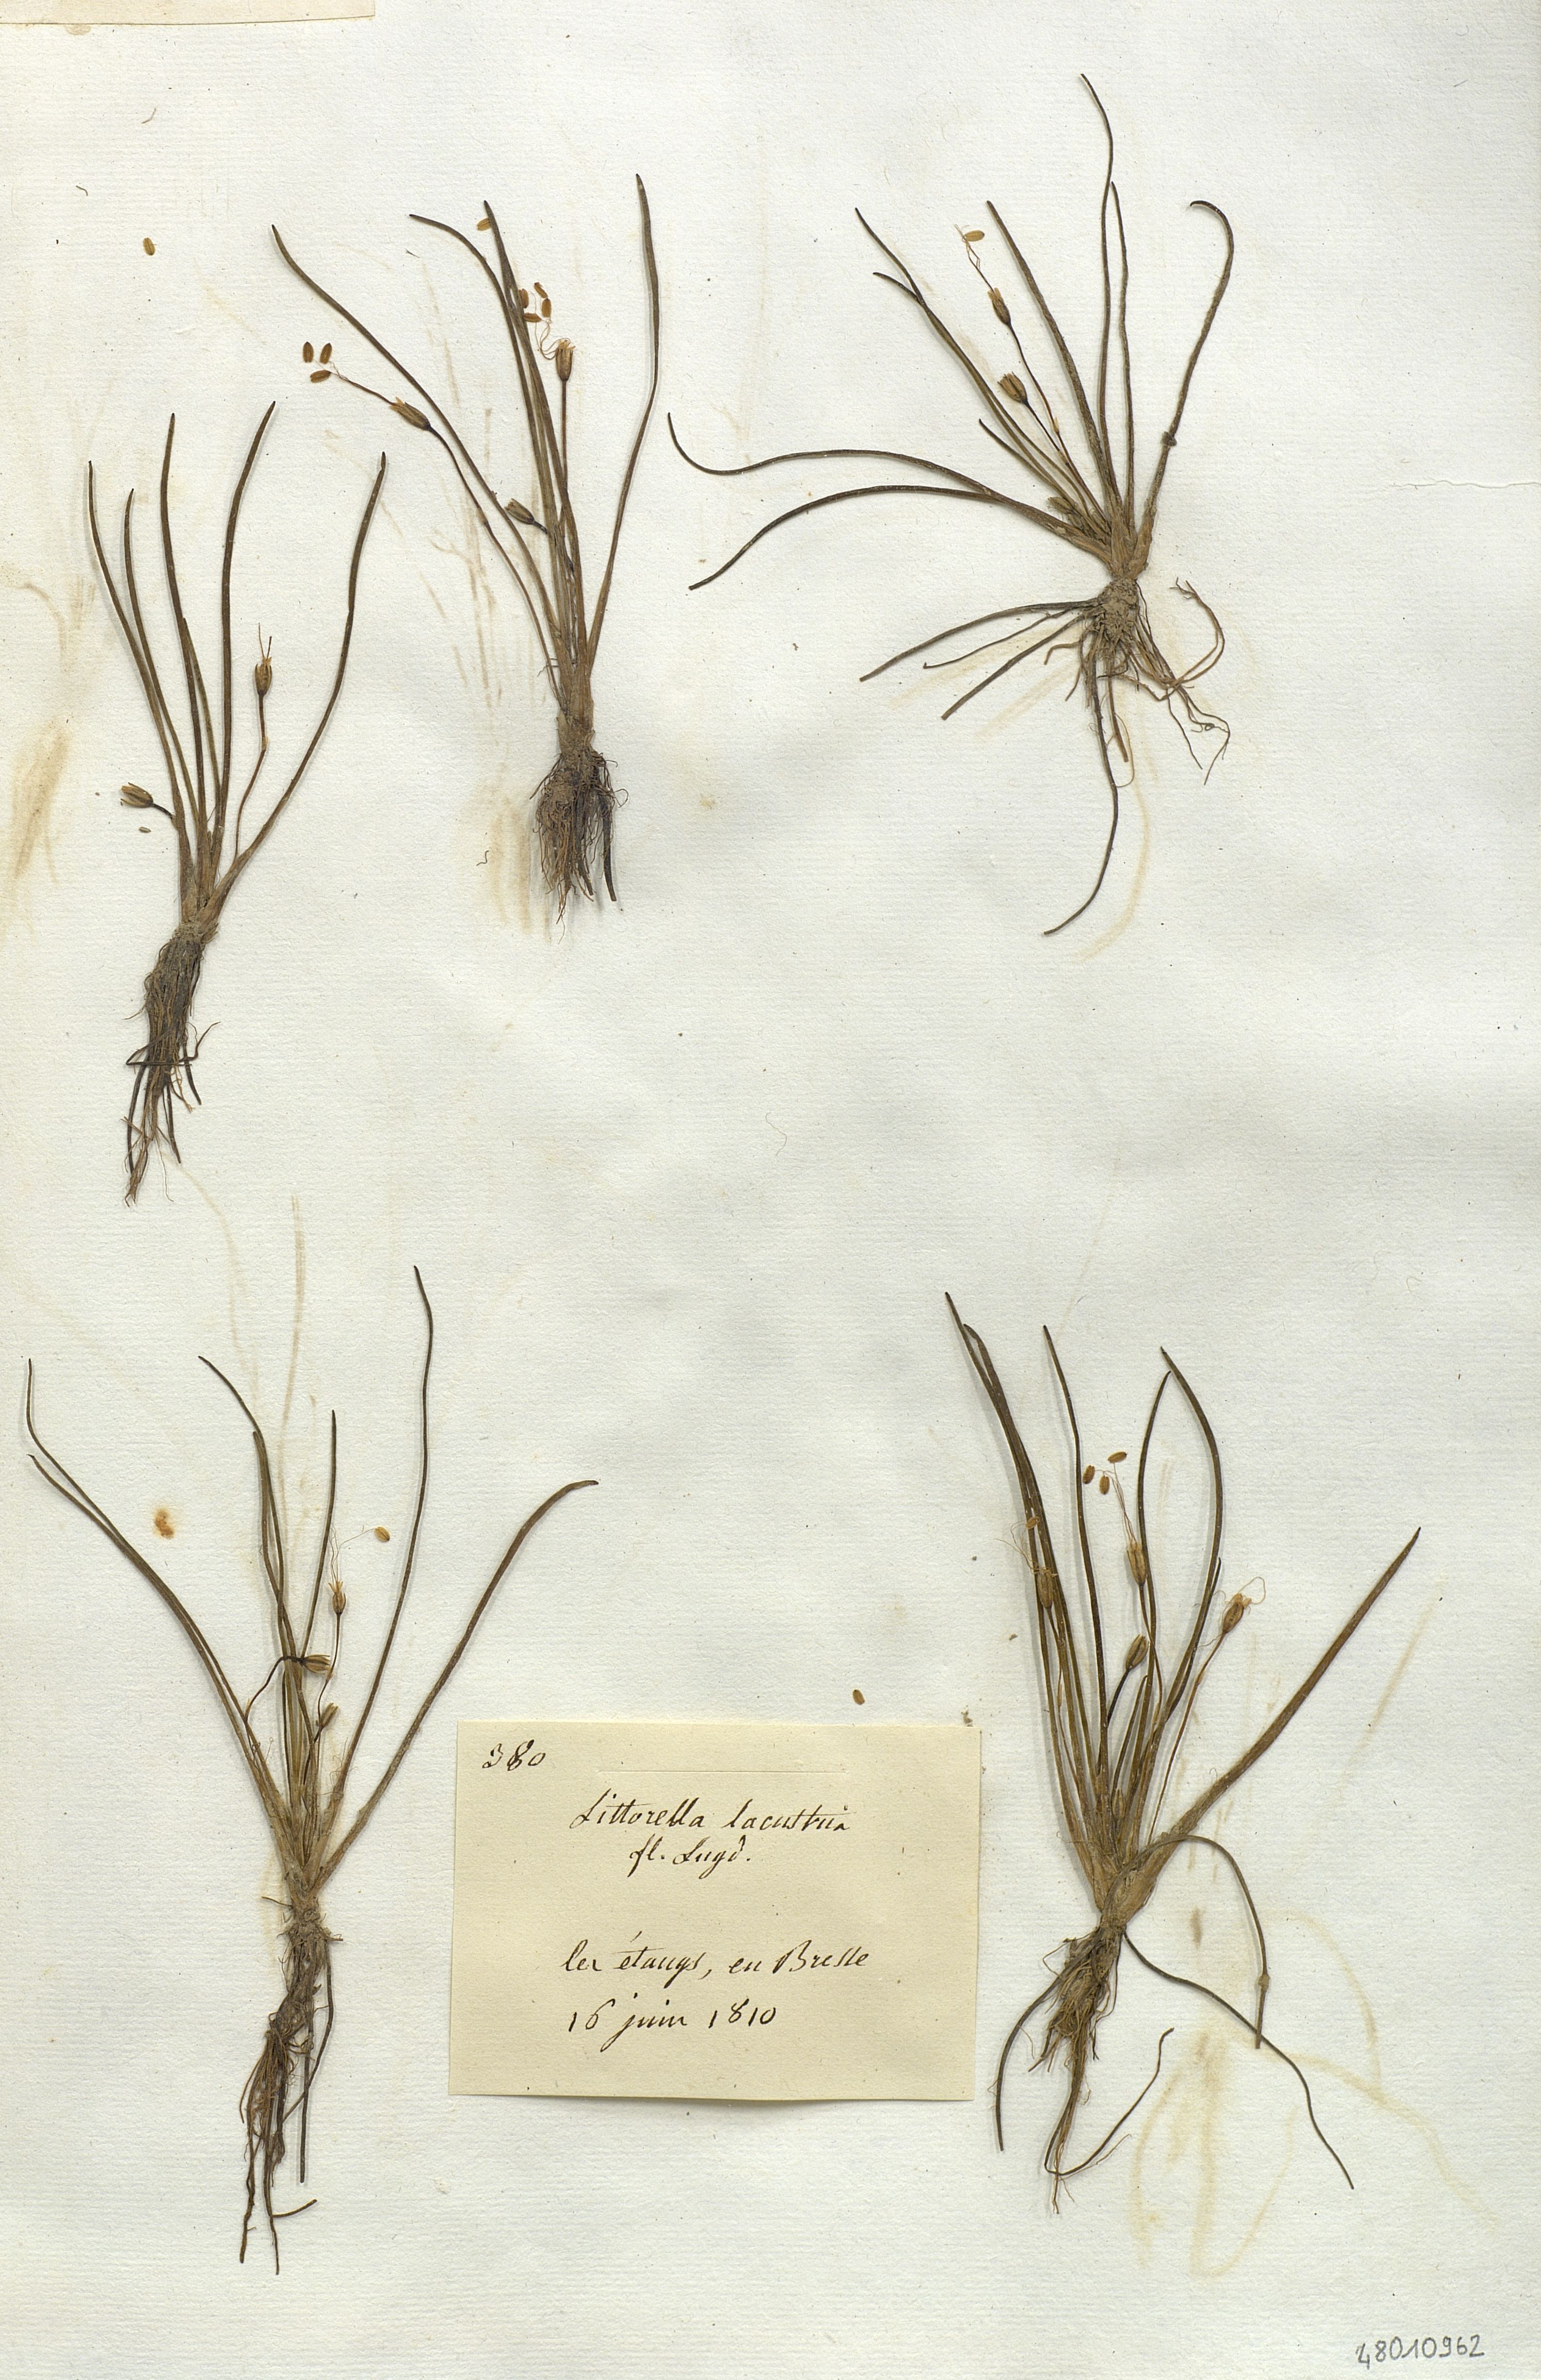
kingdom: Plantae
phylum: Tracheophyta
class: Magnoliopsida
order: Lamiales
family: Plantaginaceae
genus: Littorella
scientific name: Littorella lacustris
